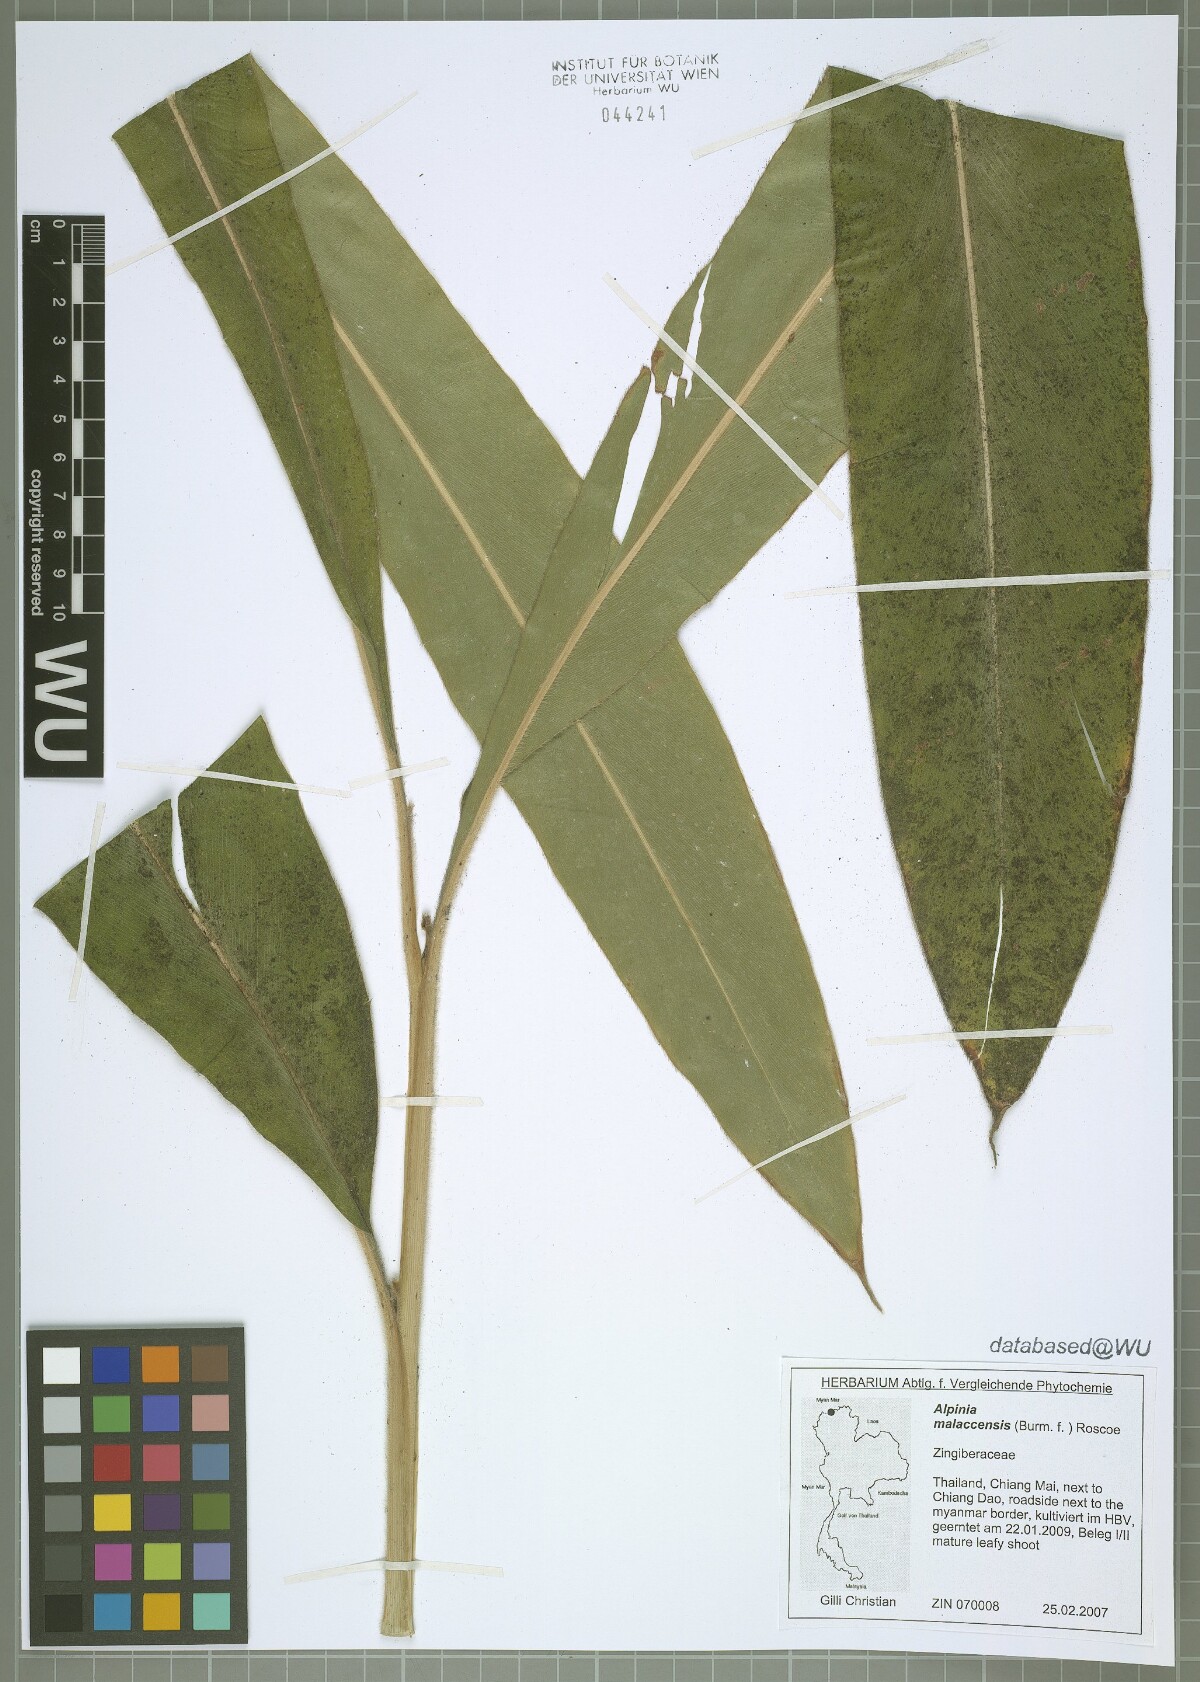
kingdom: Plantae
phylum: Tracheophyta
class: Liliopsida
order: Zingiberales
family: Zingiberaceae
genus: Alpinia
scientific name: Alpinia malaccensis
